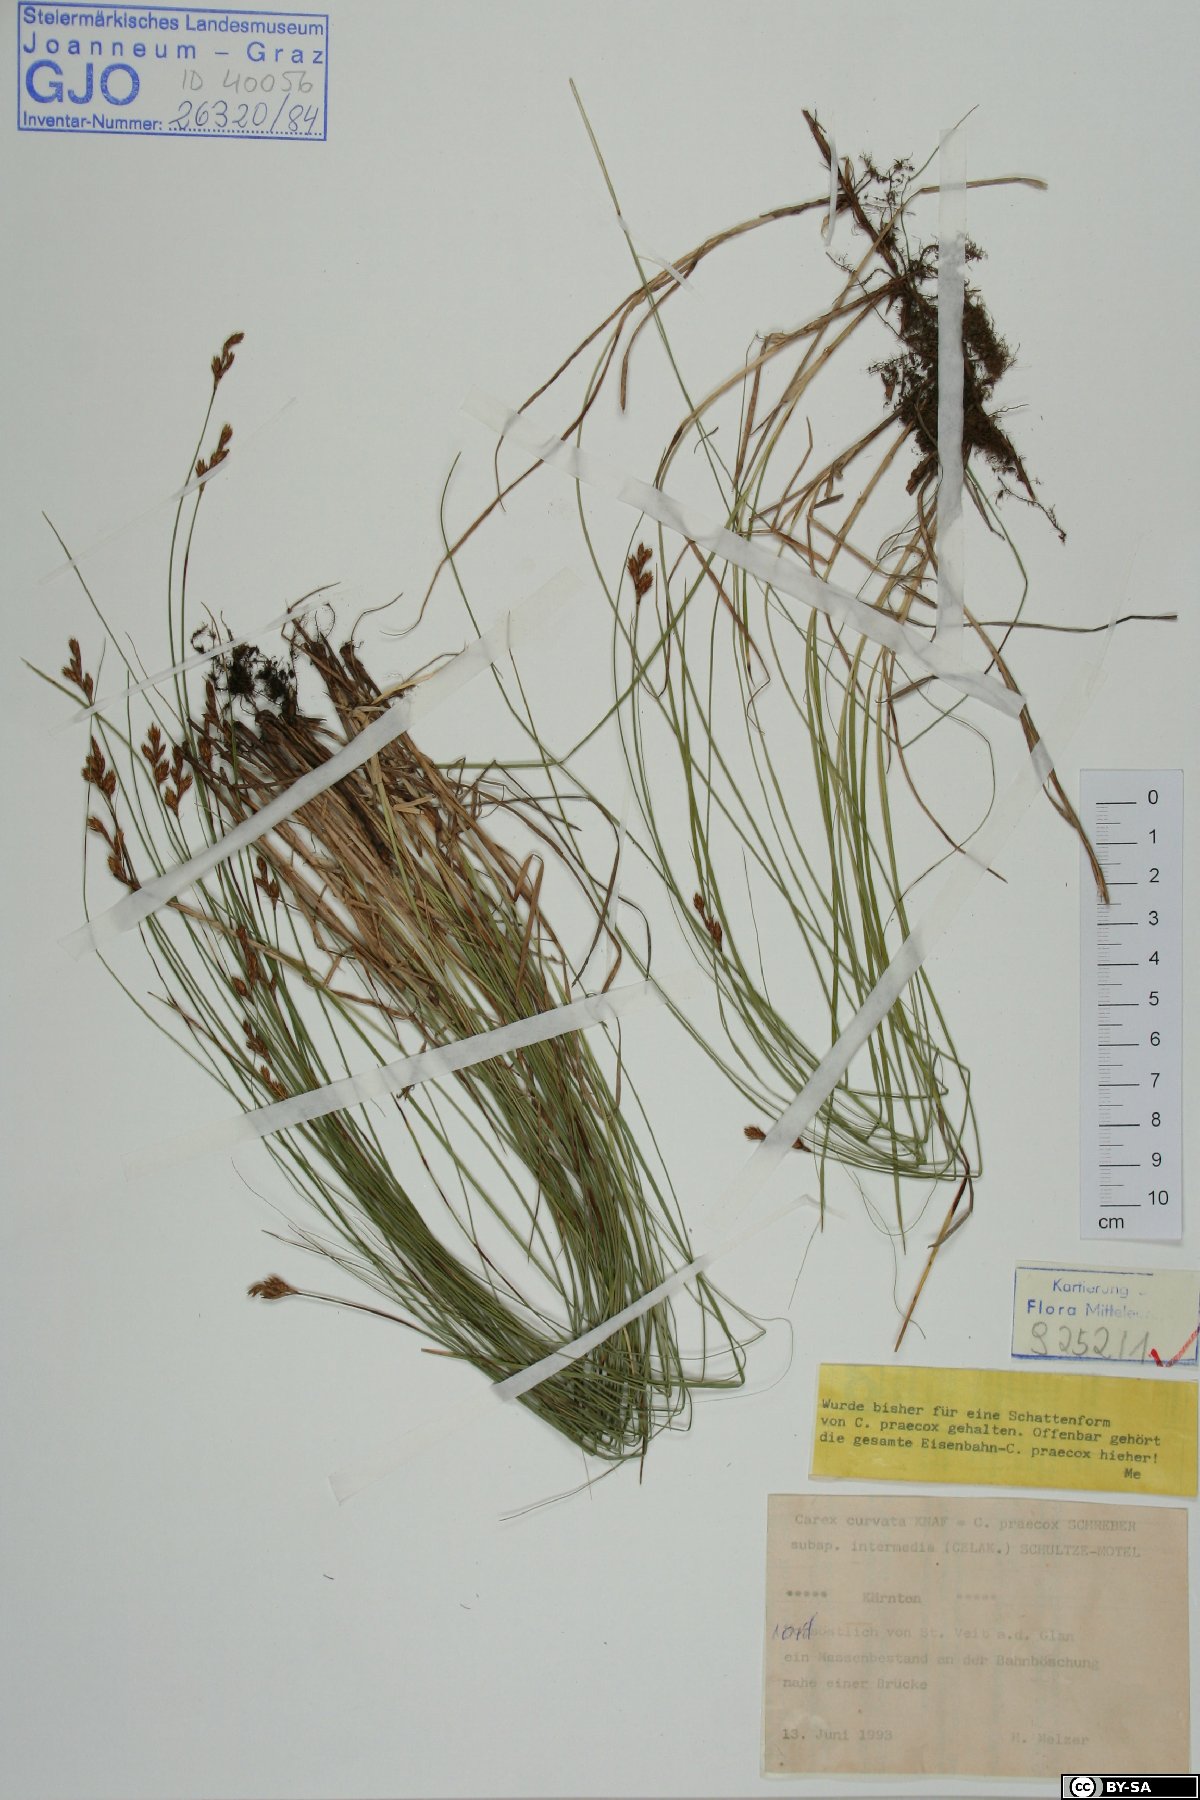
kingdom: Plantae
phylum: Tracheophyta
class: Liliopsida
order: Poales
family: Cyperaceae
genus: Carex
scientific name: Carex curvata
